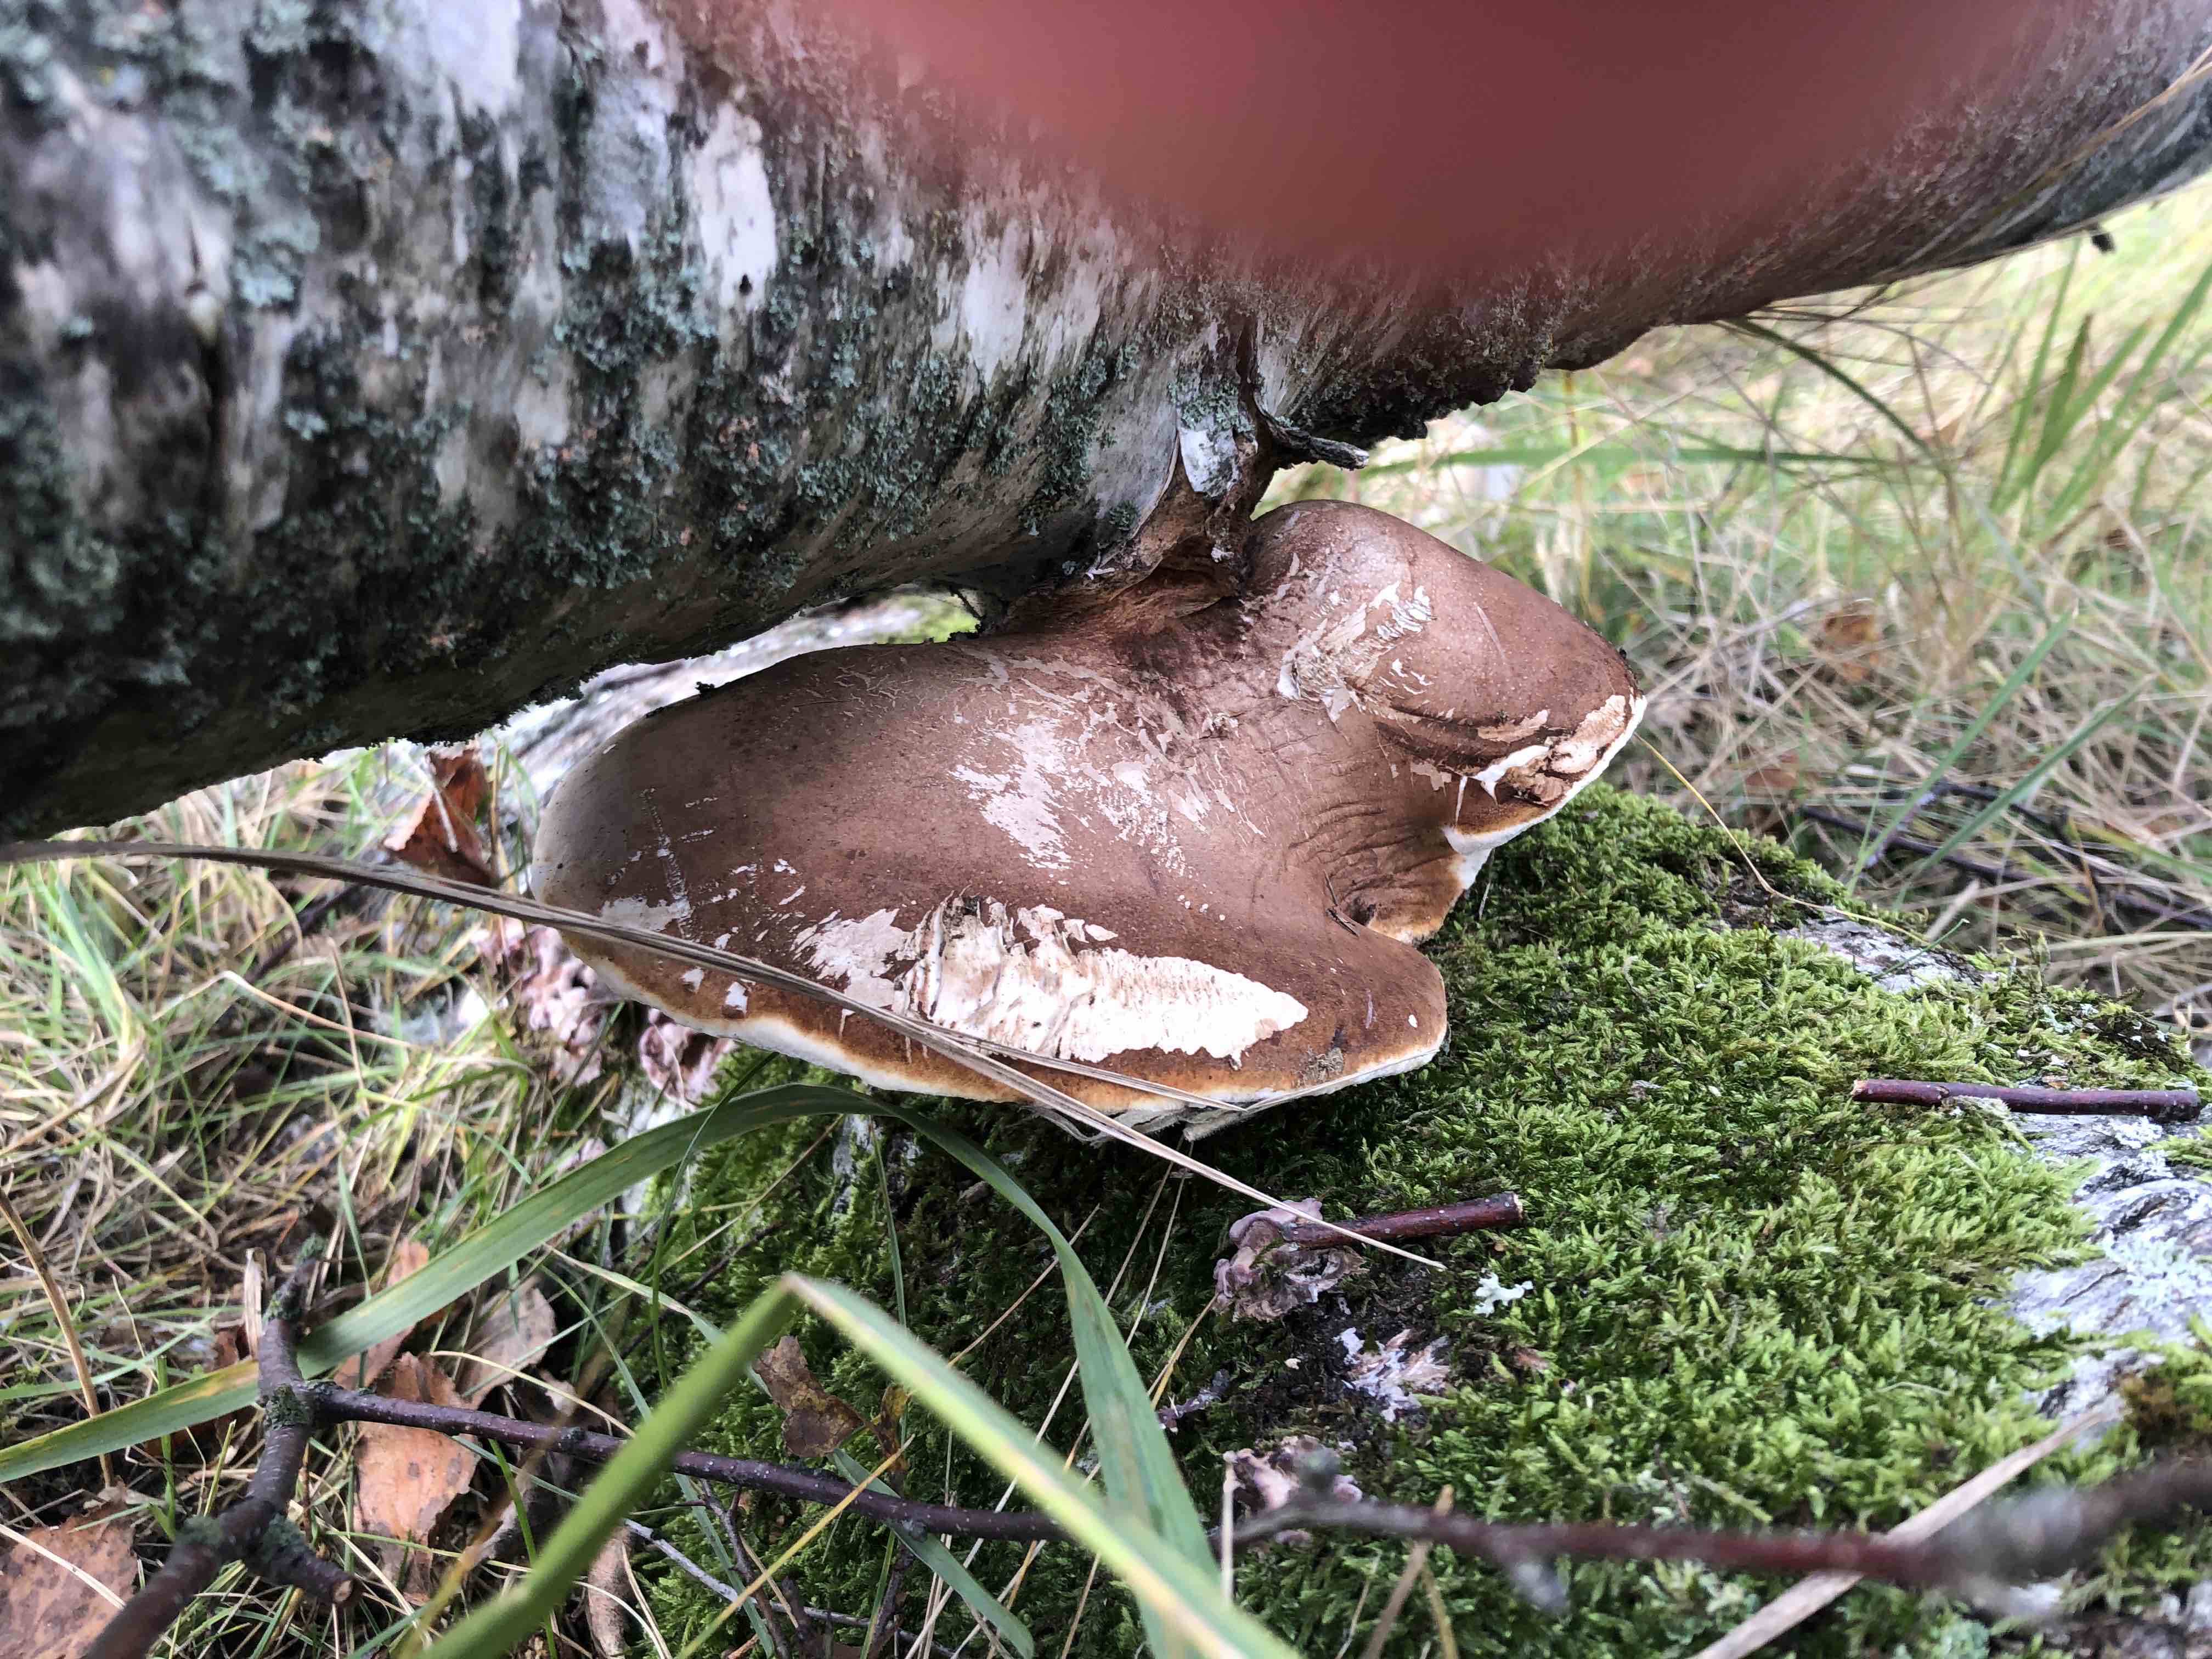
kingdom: Fungi
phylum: Basidiomycota
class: Agaricomycetes
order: Polyporales
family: Fomitopsidaceae
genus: Fomitopsis
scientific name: Fomitopsis betulina
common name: birkeporesvamp
